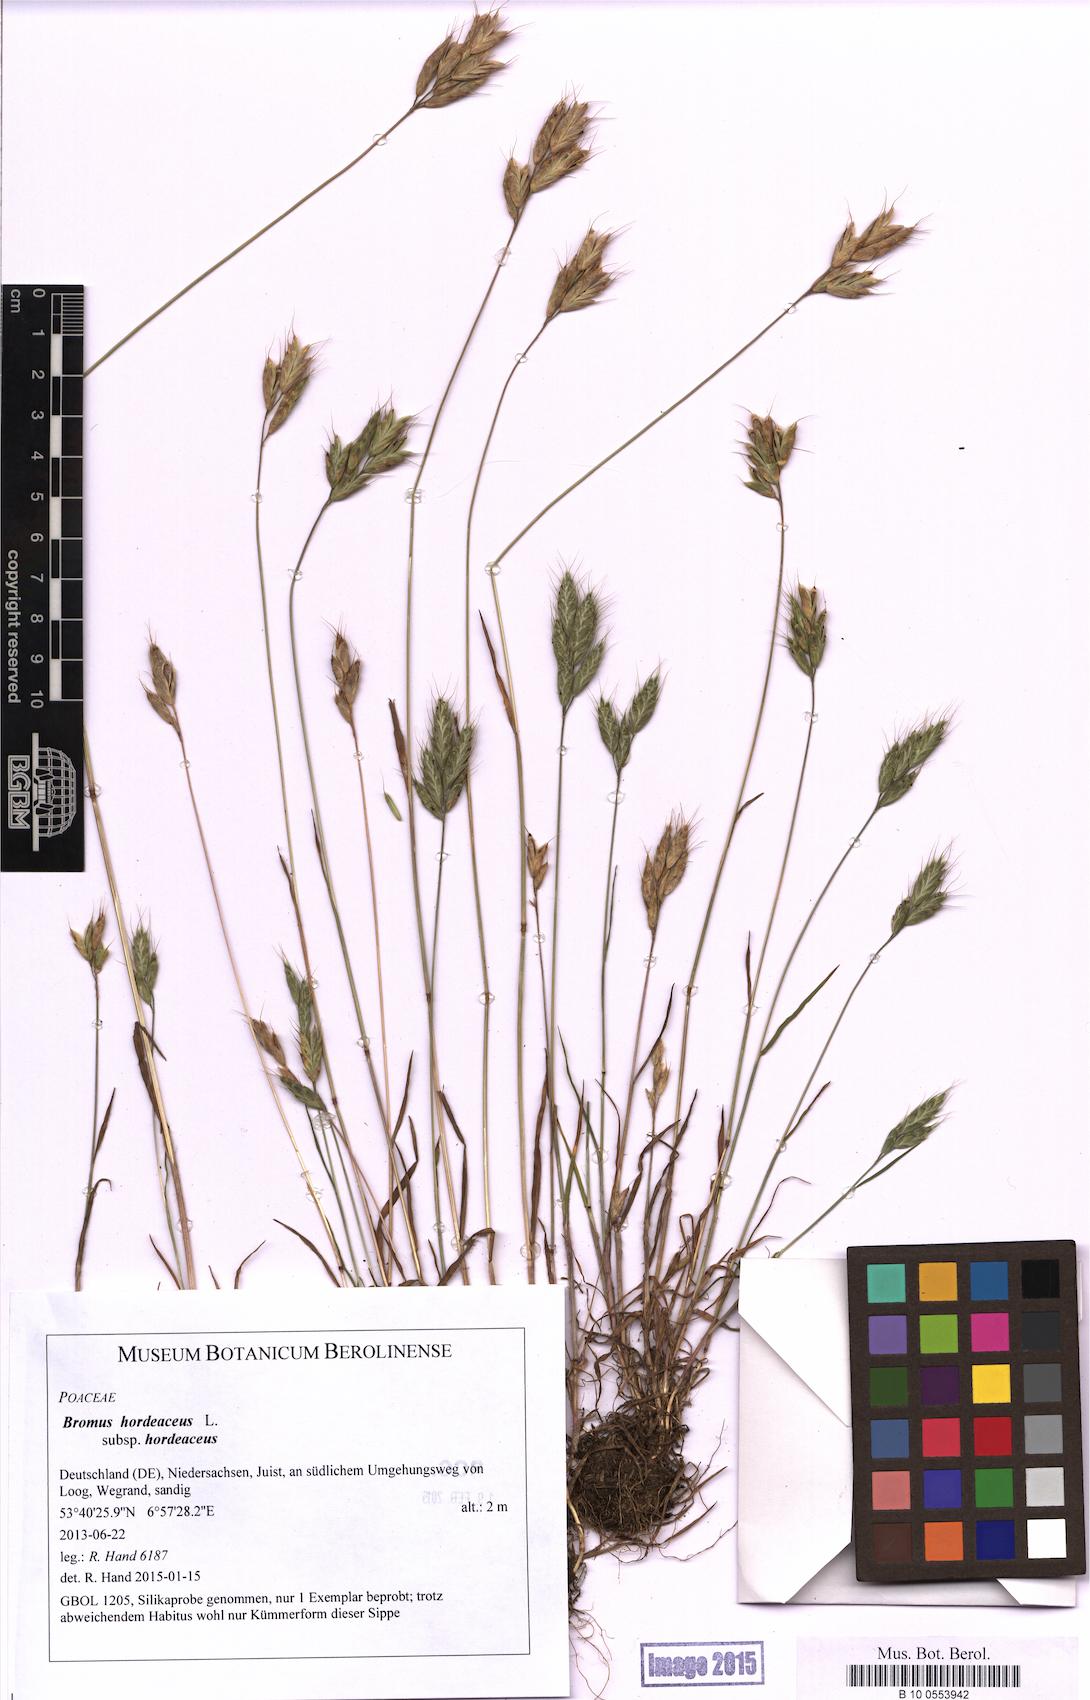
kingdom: Plantae
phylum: Tracheophyta
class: Liliopsida
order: Poales
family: Poaceae
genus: Bromus
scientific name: Bromus hordeaceus
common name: Soft brome
